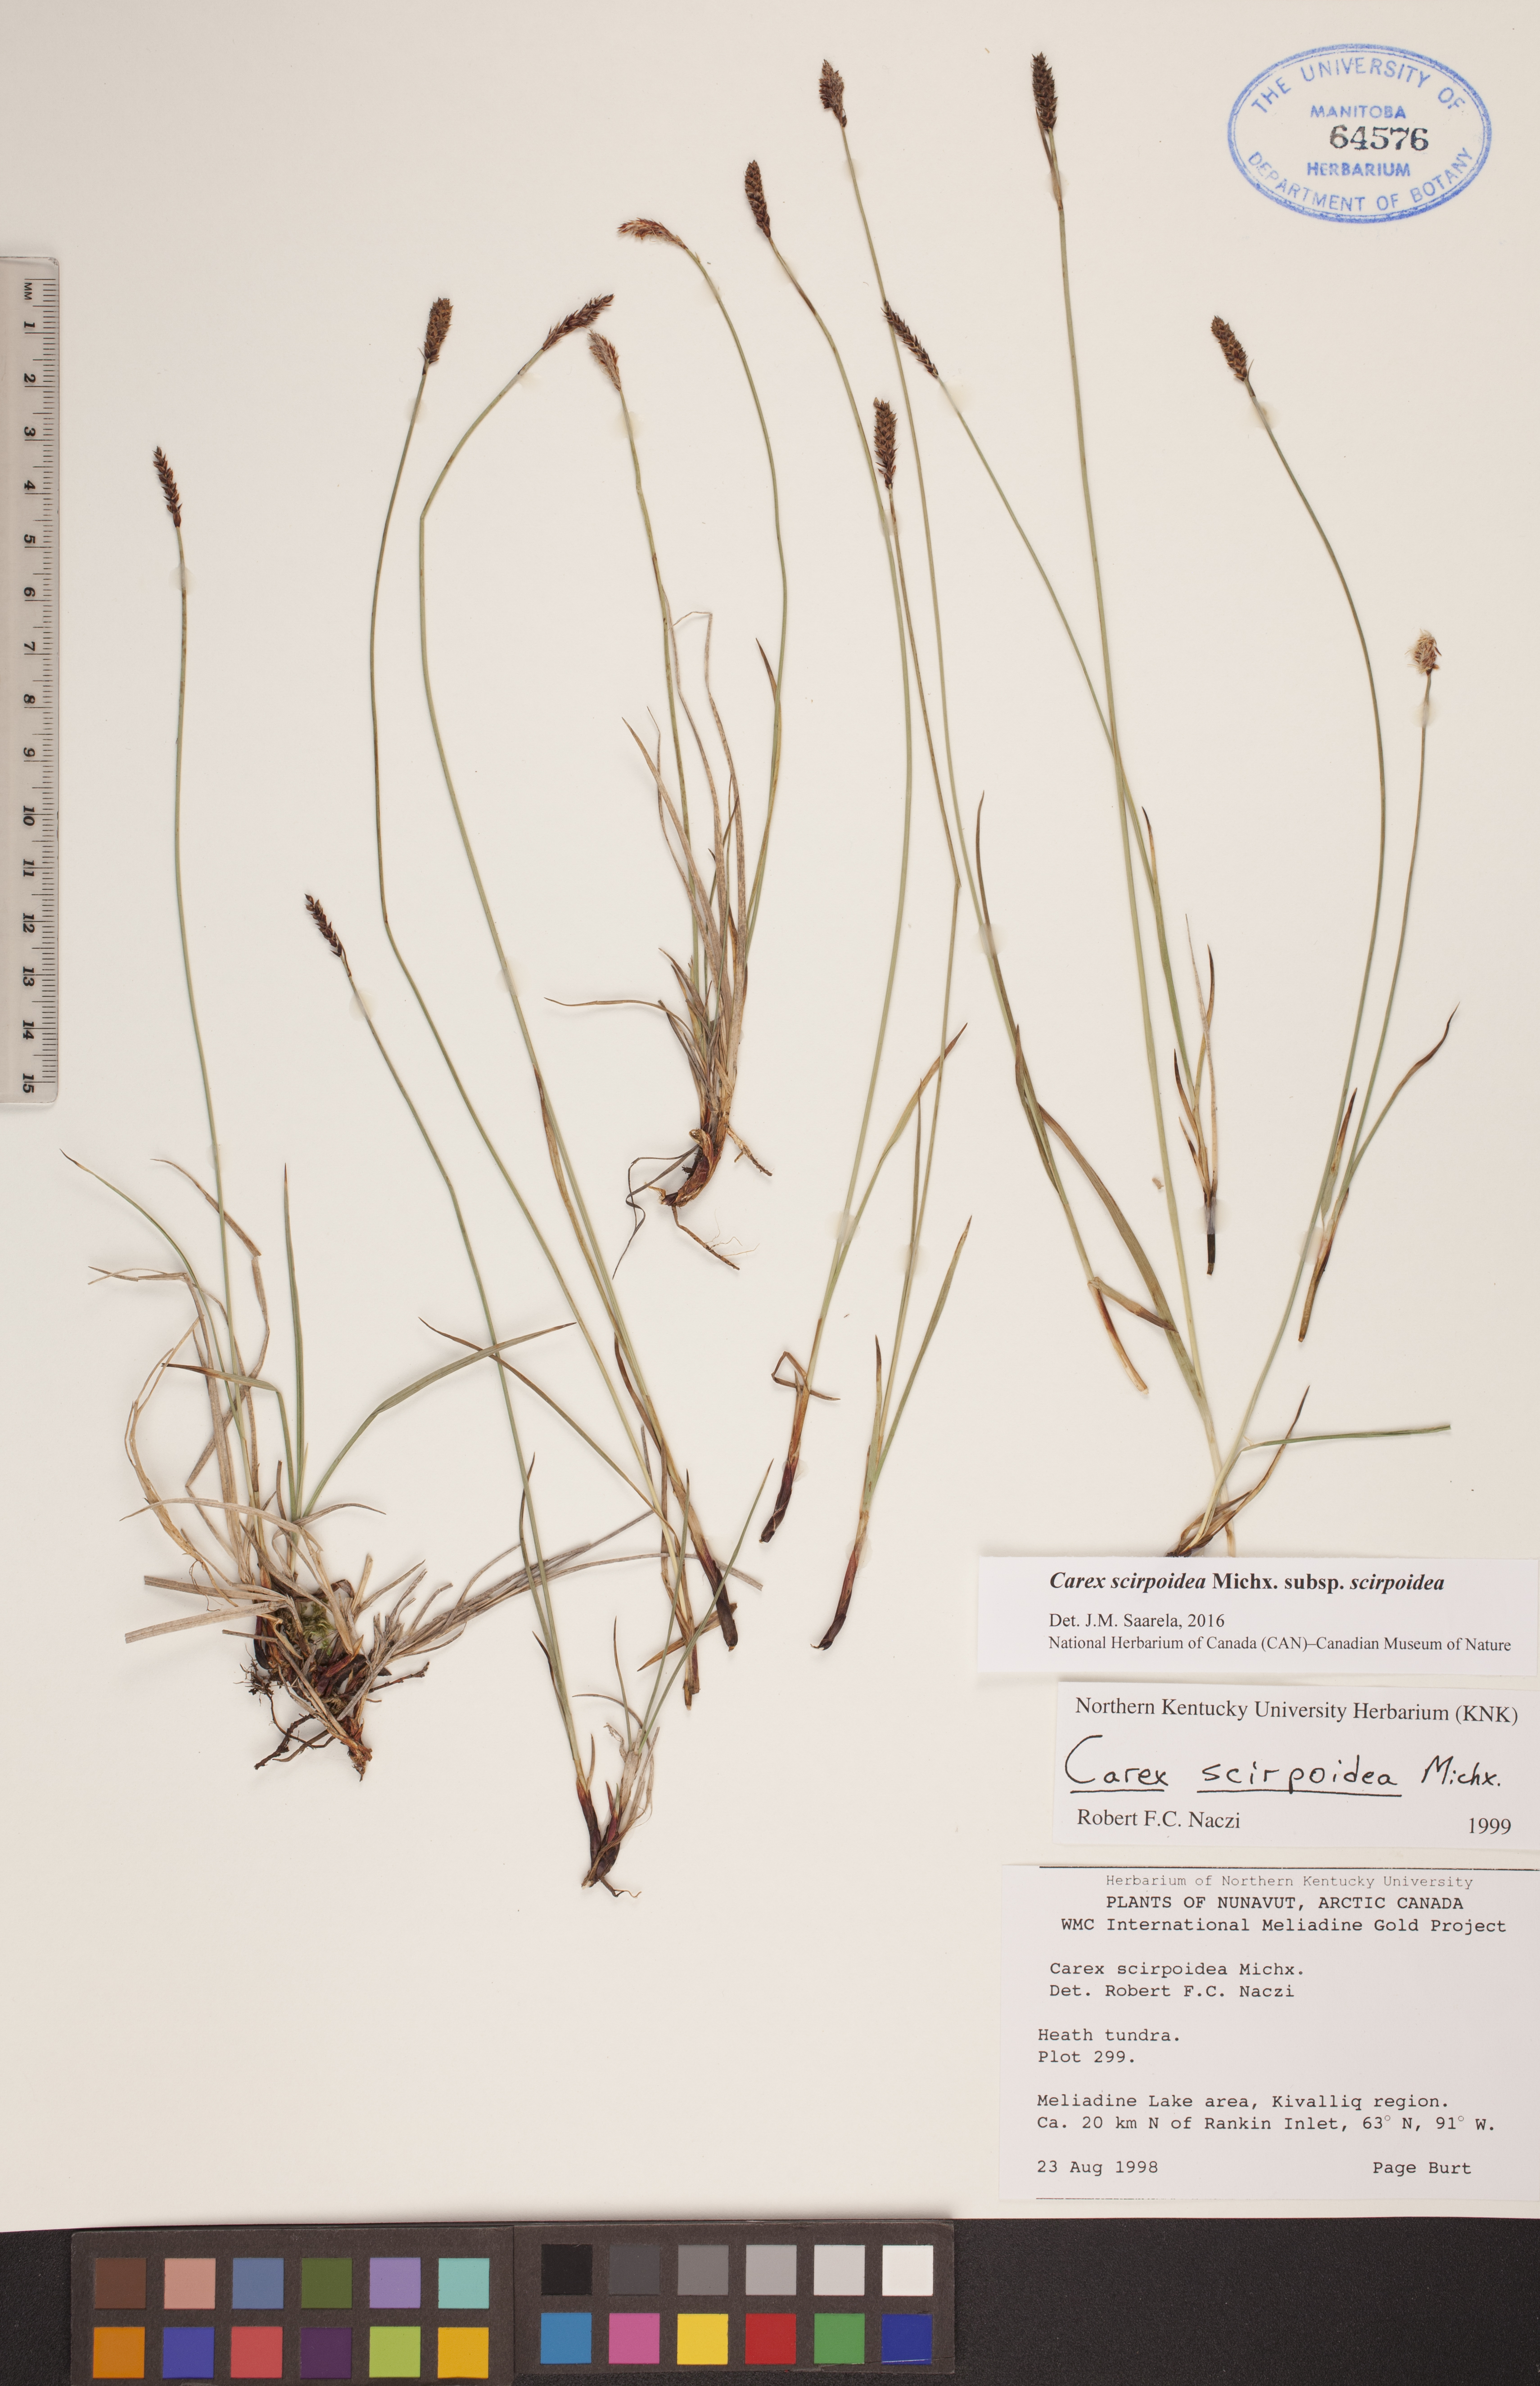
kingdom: Plantae
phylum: Tracheophyta
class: Liliopsida
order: Poales
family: Cyperaceae
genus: Carex
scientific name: Carex scirpoidea
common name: Canada single-spike sedge
